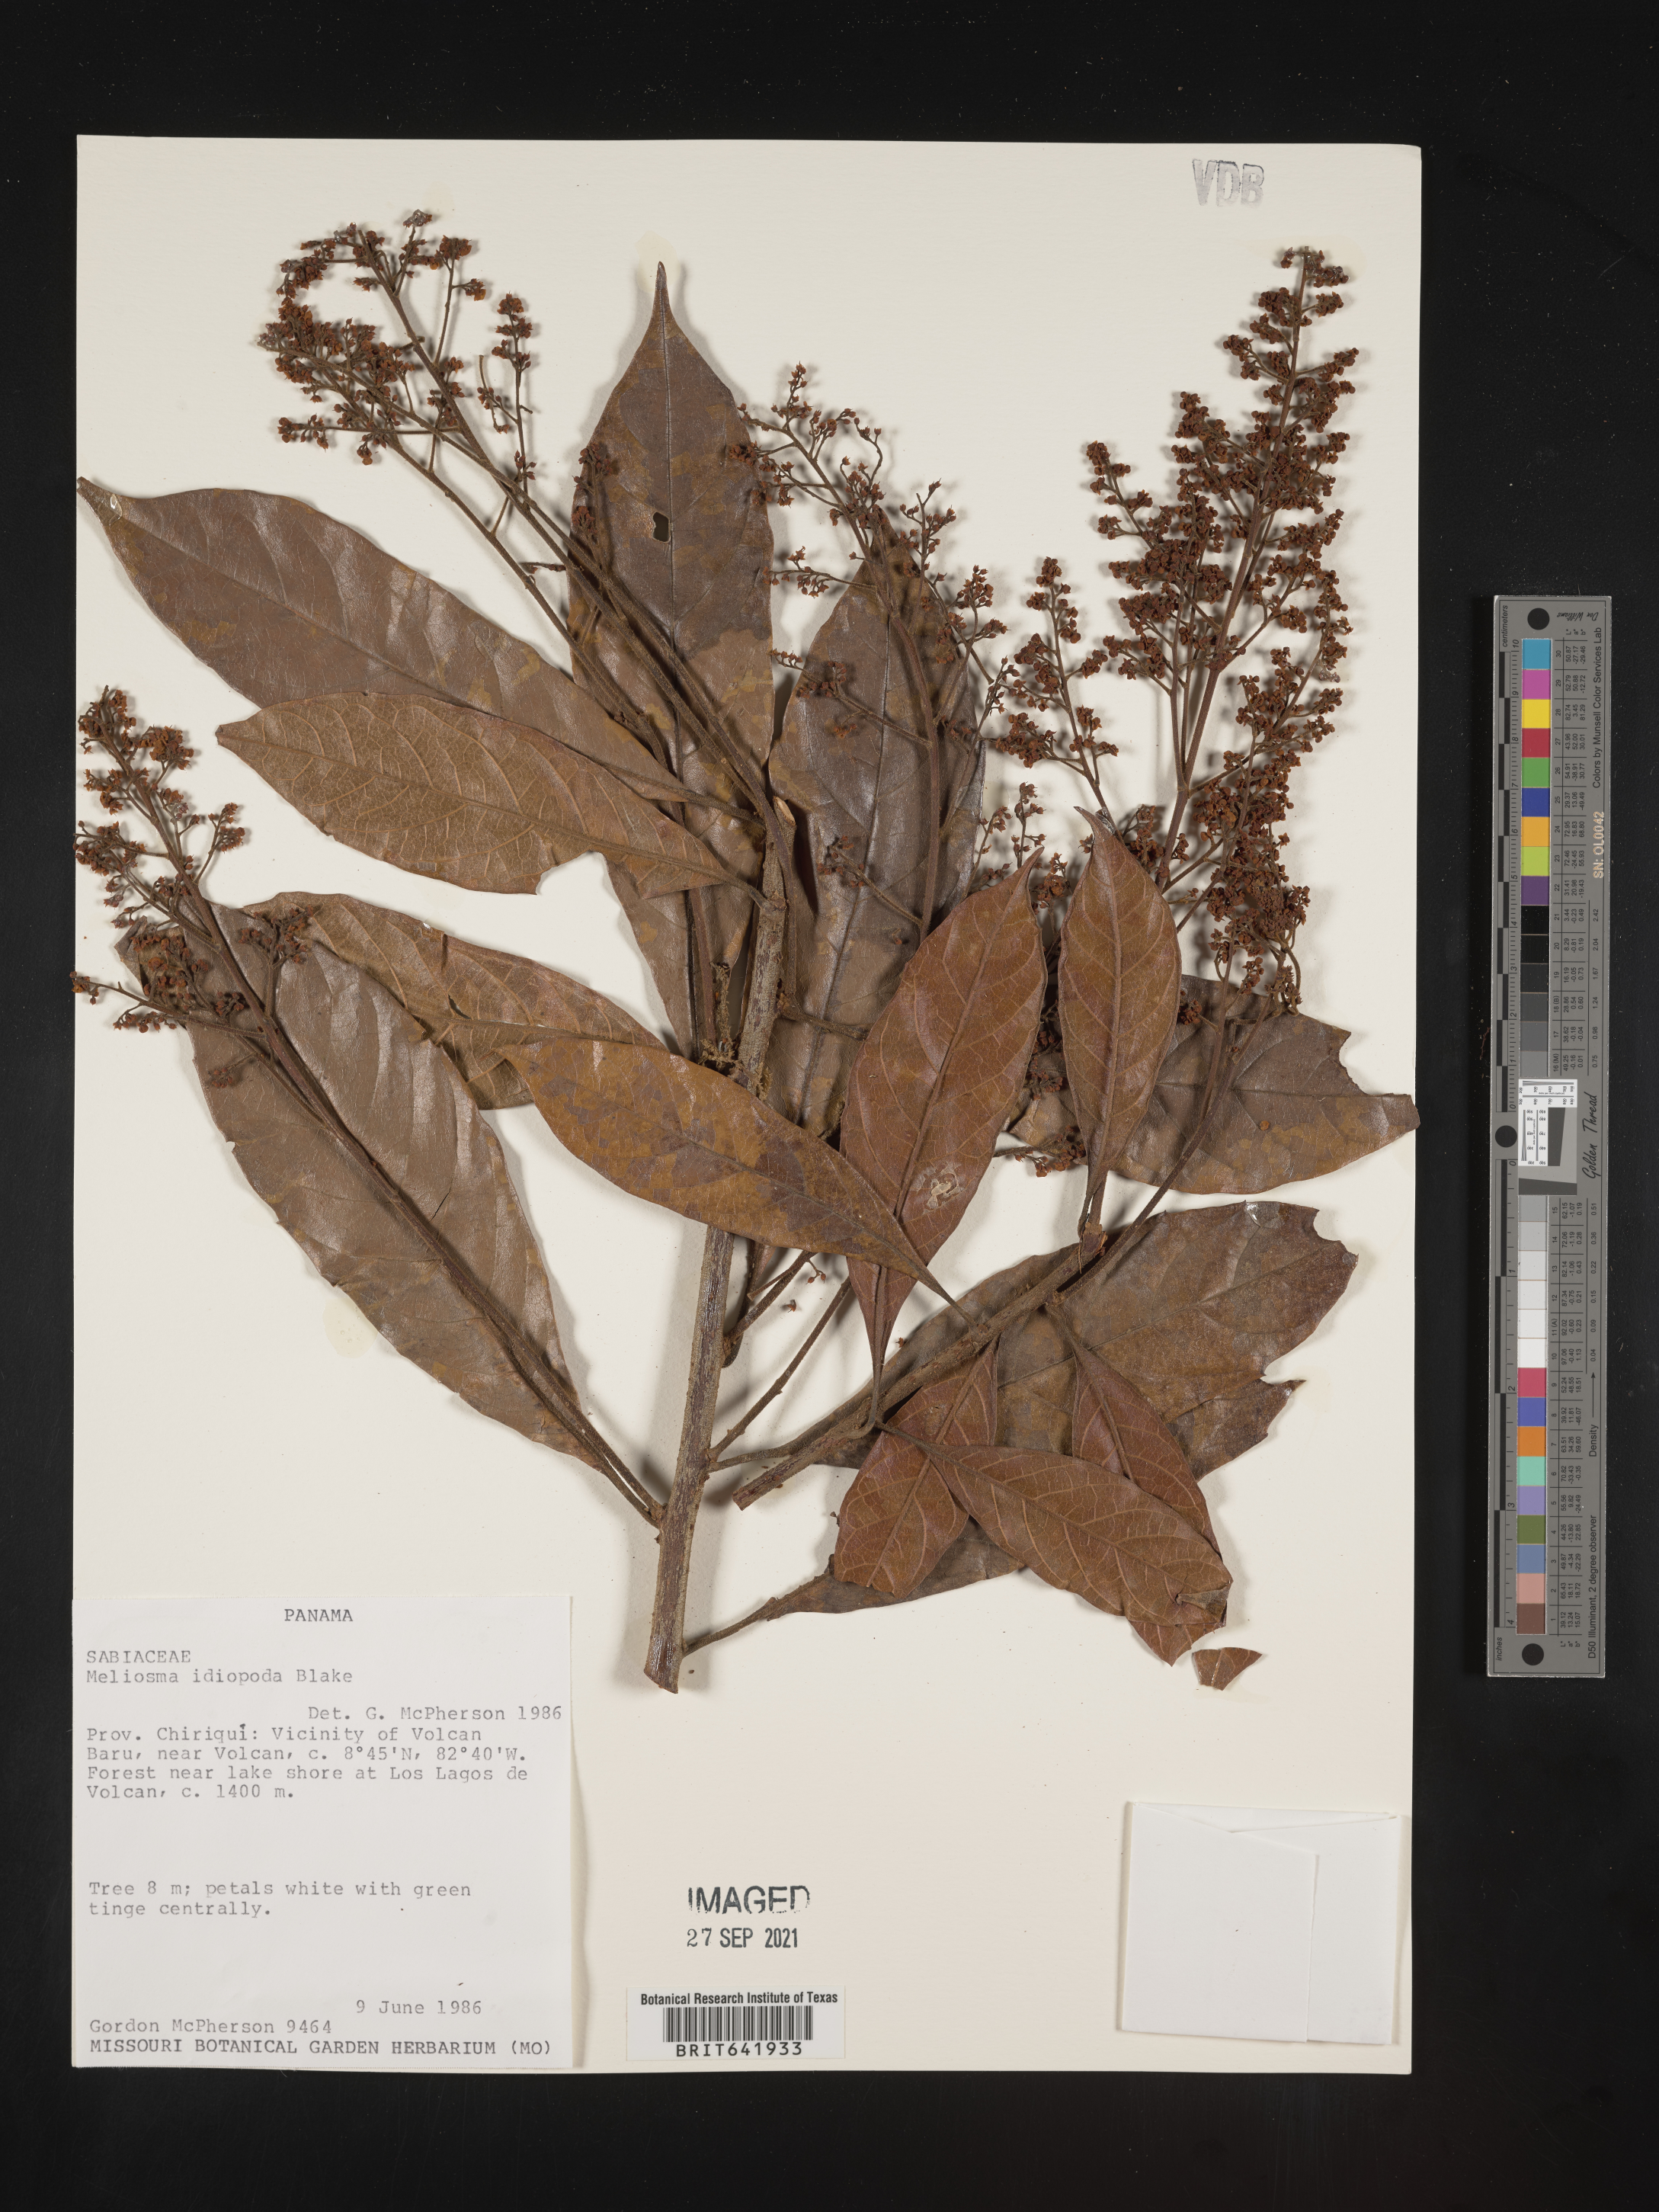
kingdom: Plantae
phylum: Tracheophyta
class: Magnoliopsida
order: Proteales
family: Sabiaceae
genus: Meliosma
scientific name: Meliosma
